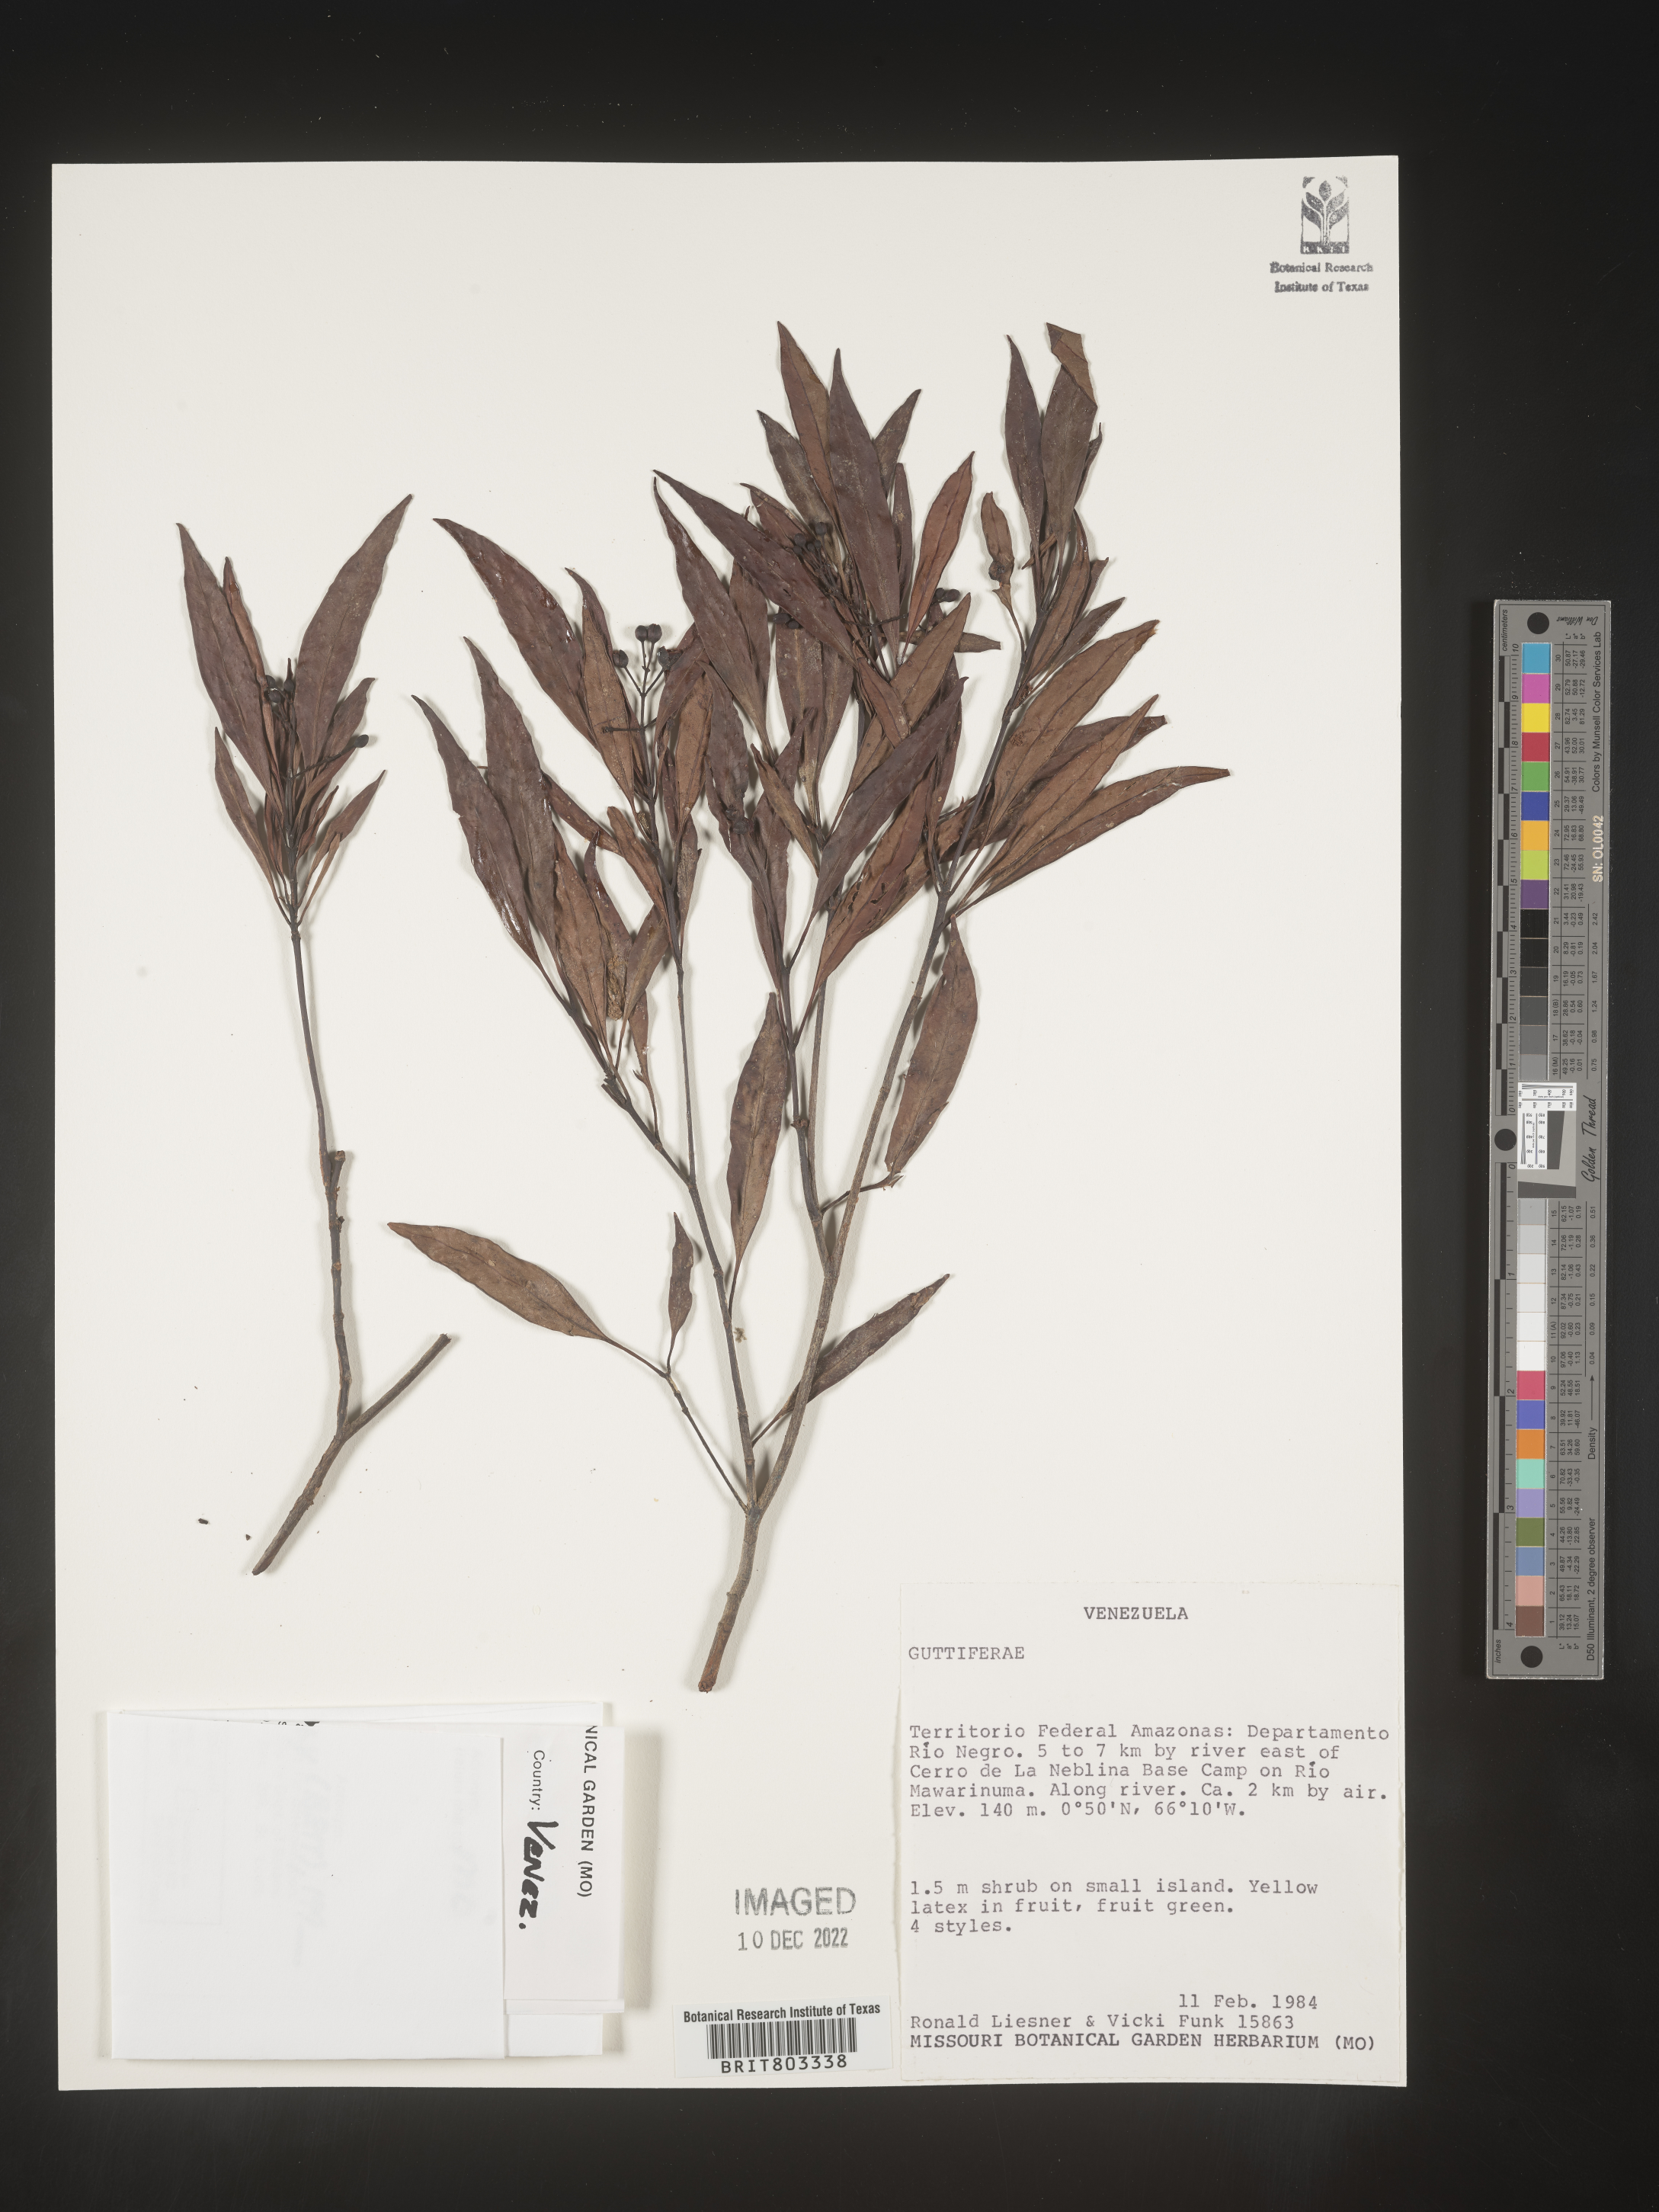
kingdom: Plantae
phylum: Tracheophyta
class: Magnoliopsida
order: Malpighiales
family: Clusiaceae
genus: Tovomita
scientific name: Tovomita
